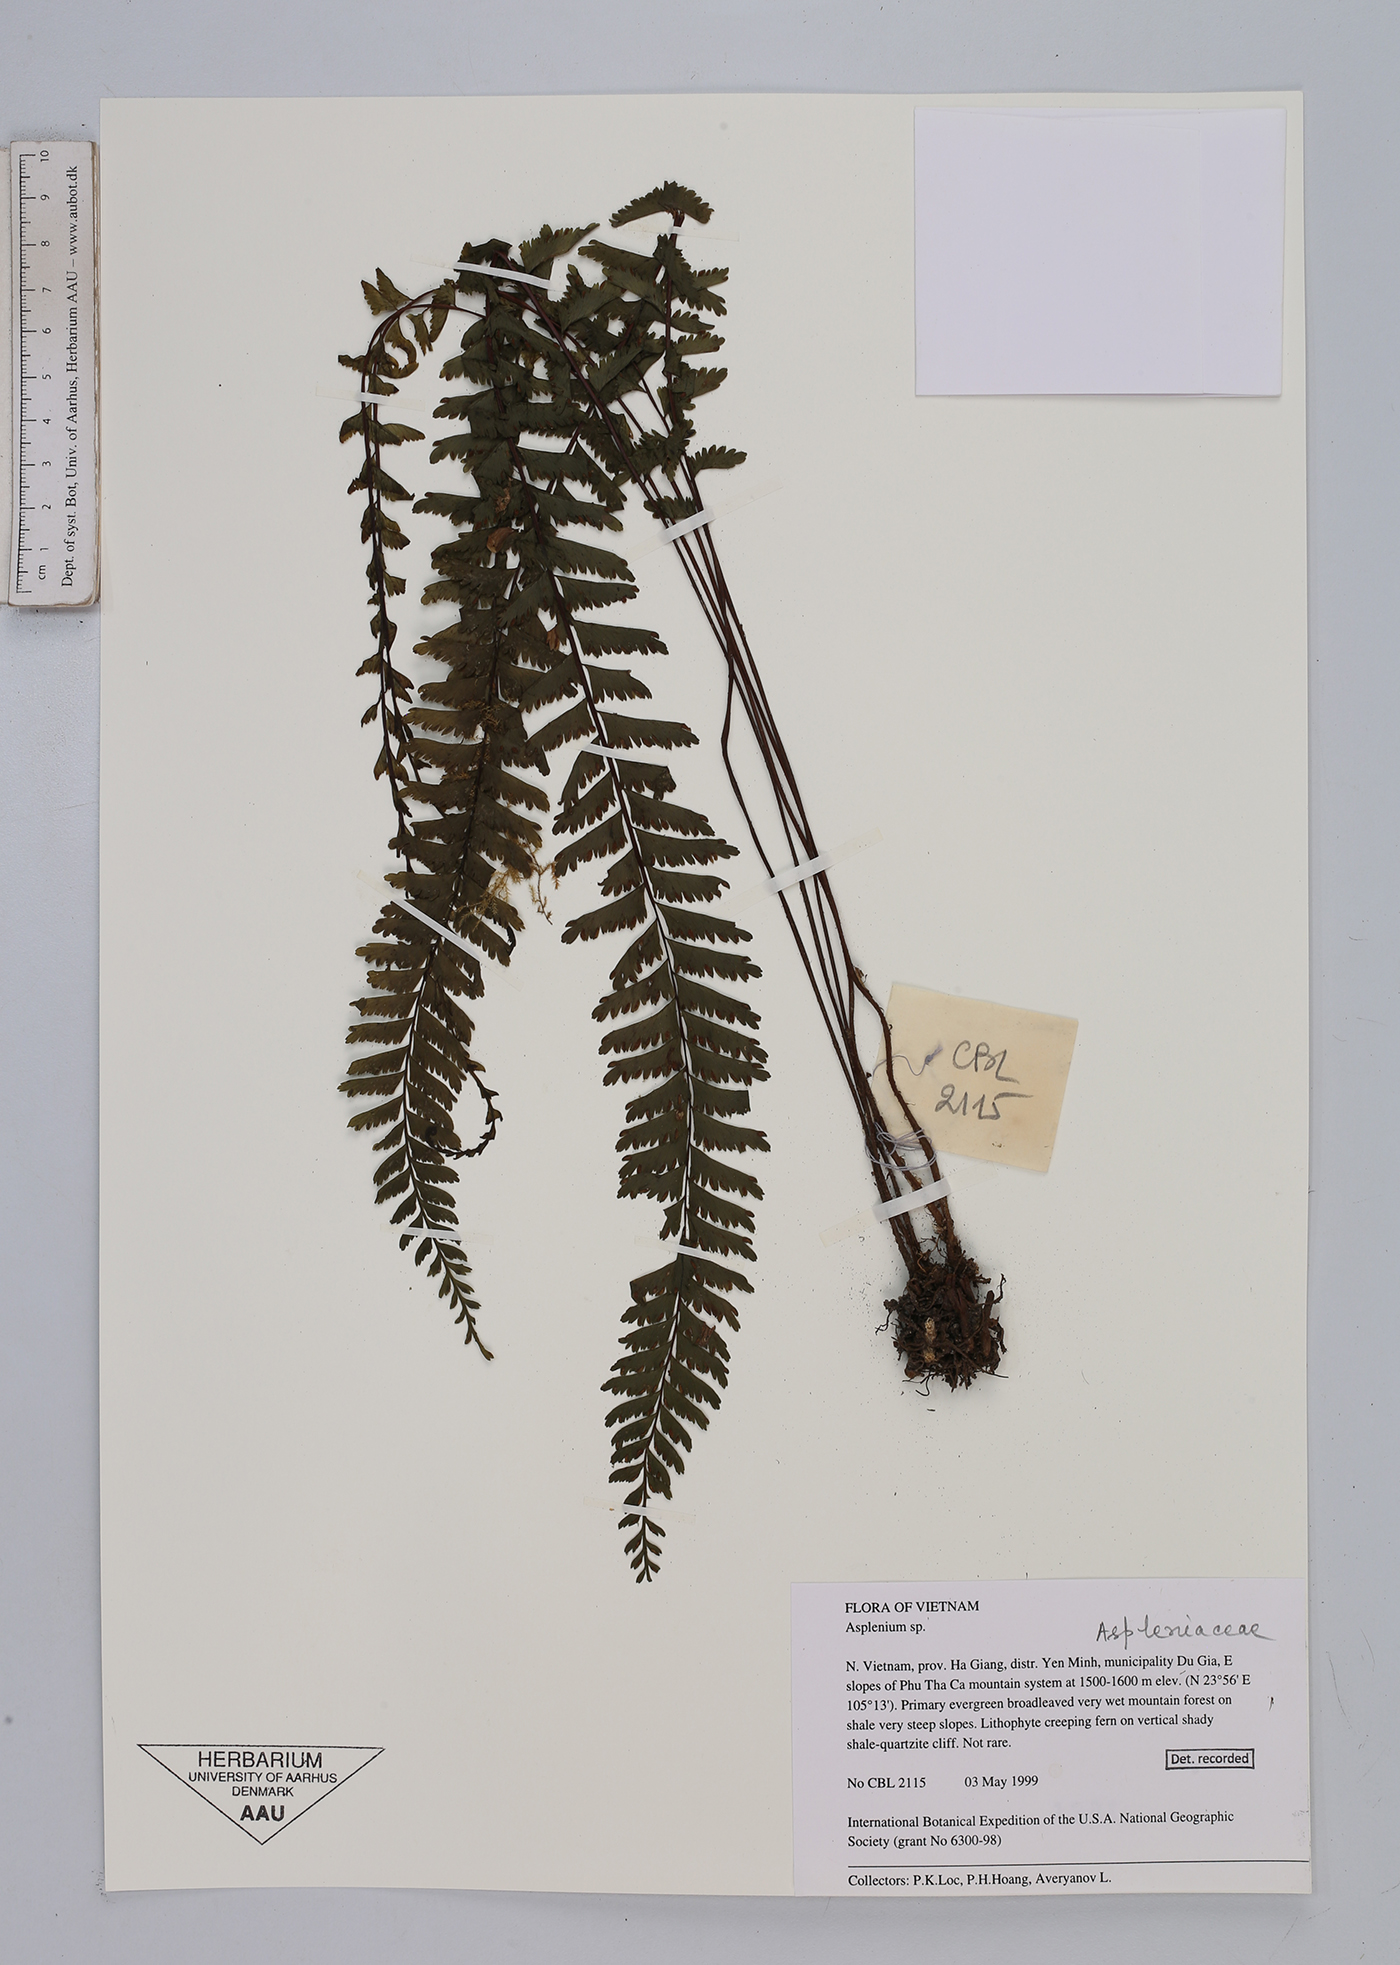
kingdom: Plantae
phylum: Tracheophyta
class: Polypodiopsida
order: Polypodiales
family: Aspleniaceae
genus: Asplenium
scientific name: Asplenium
